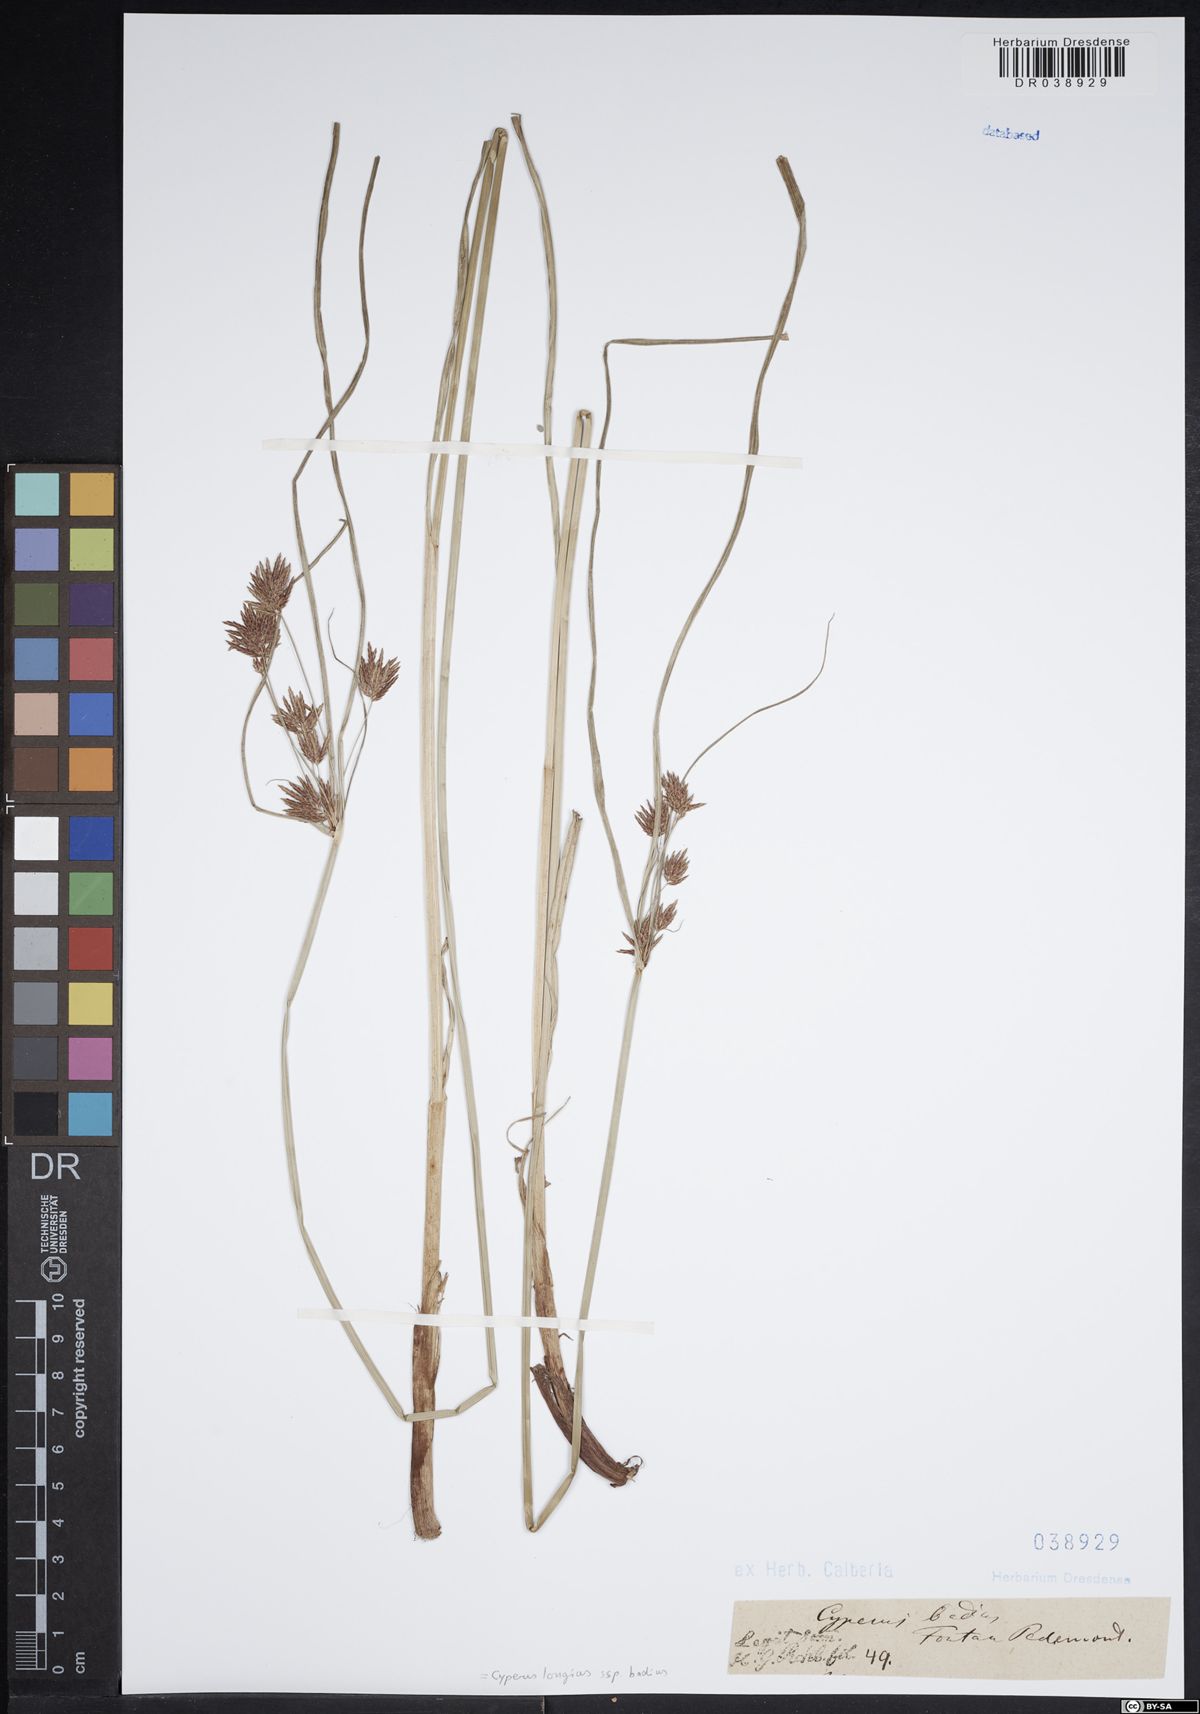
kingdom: Plantae
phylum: Tracheophyta
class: Liliopsida
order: Poales
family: Cyperaceae
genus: Cyperus
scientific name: Cyperus longus
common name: Galingale
